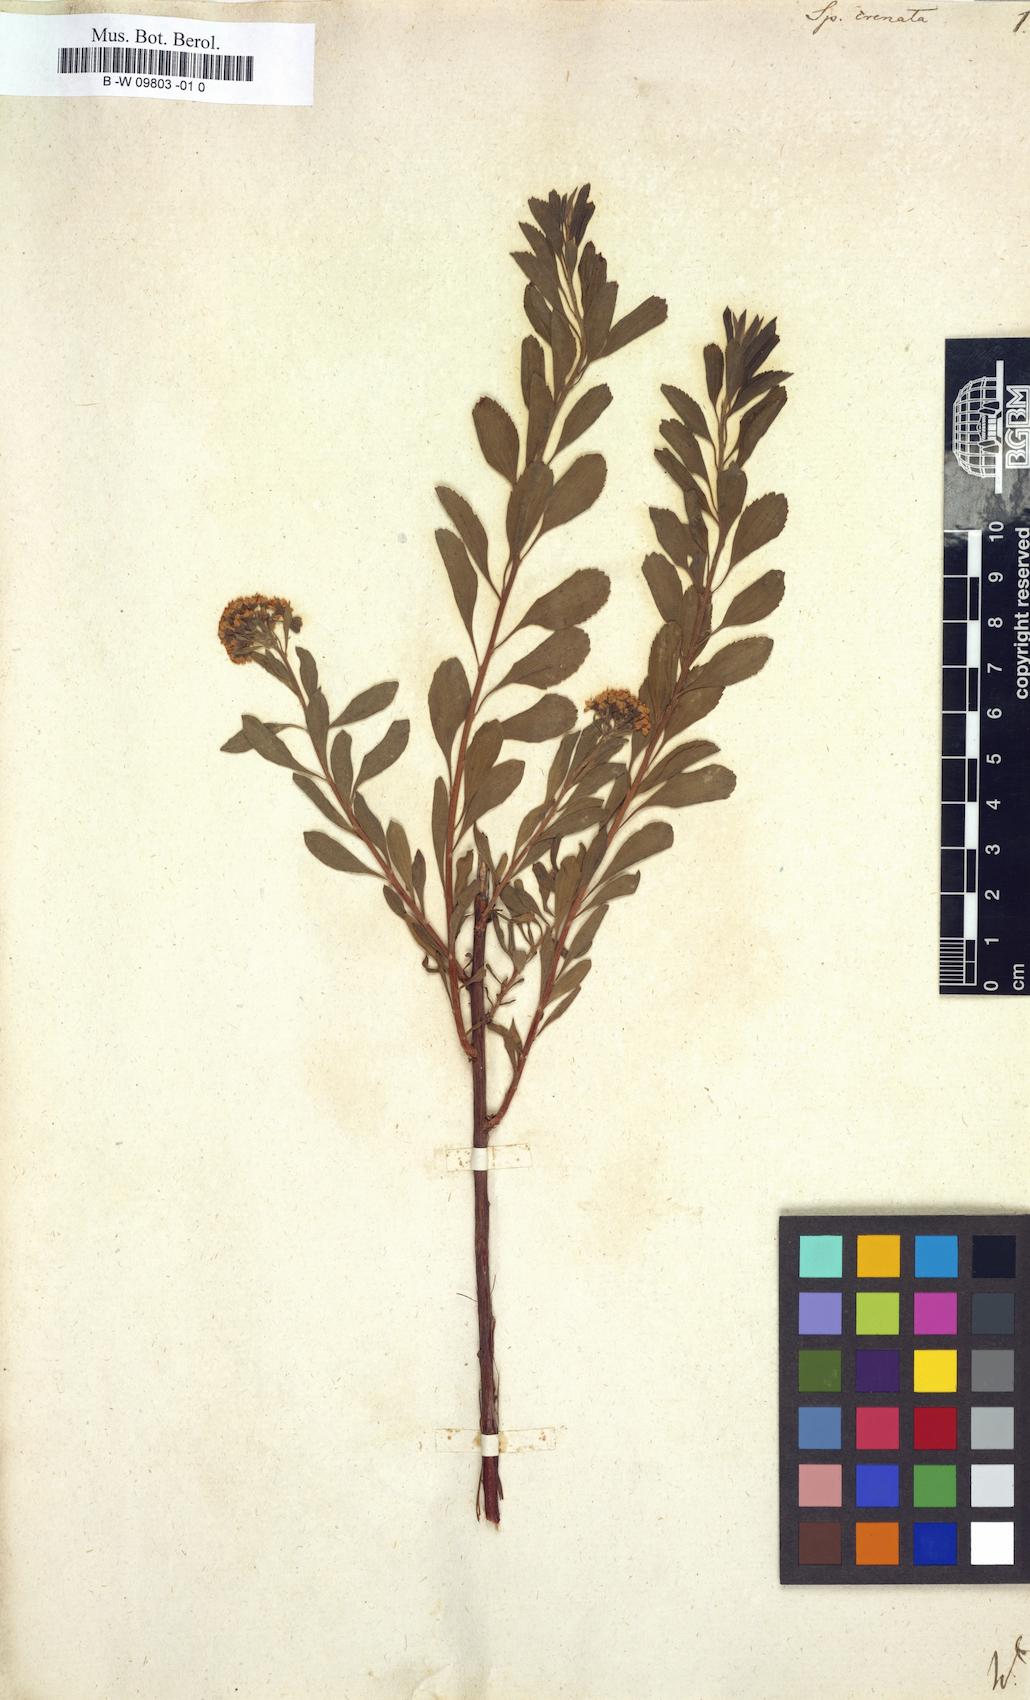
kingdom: Plantae
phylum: Tracheophyta
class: Magnoliopsida
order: Rosales
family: Rosaceae
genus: Spiraea
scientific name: Spiraea crenata
